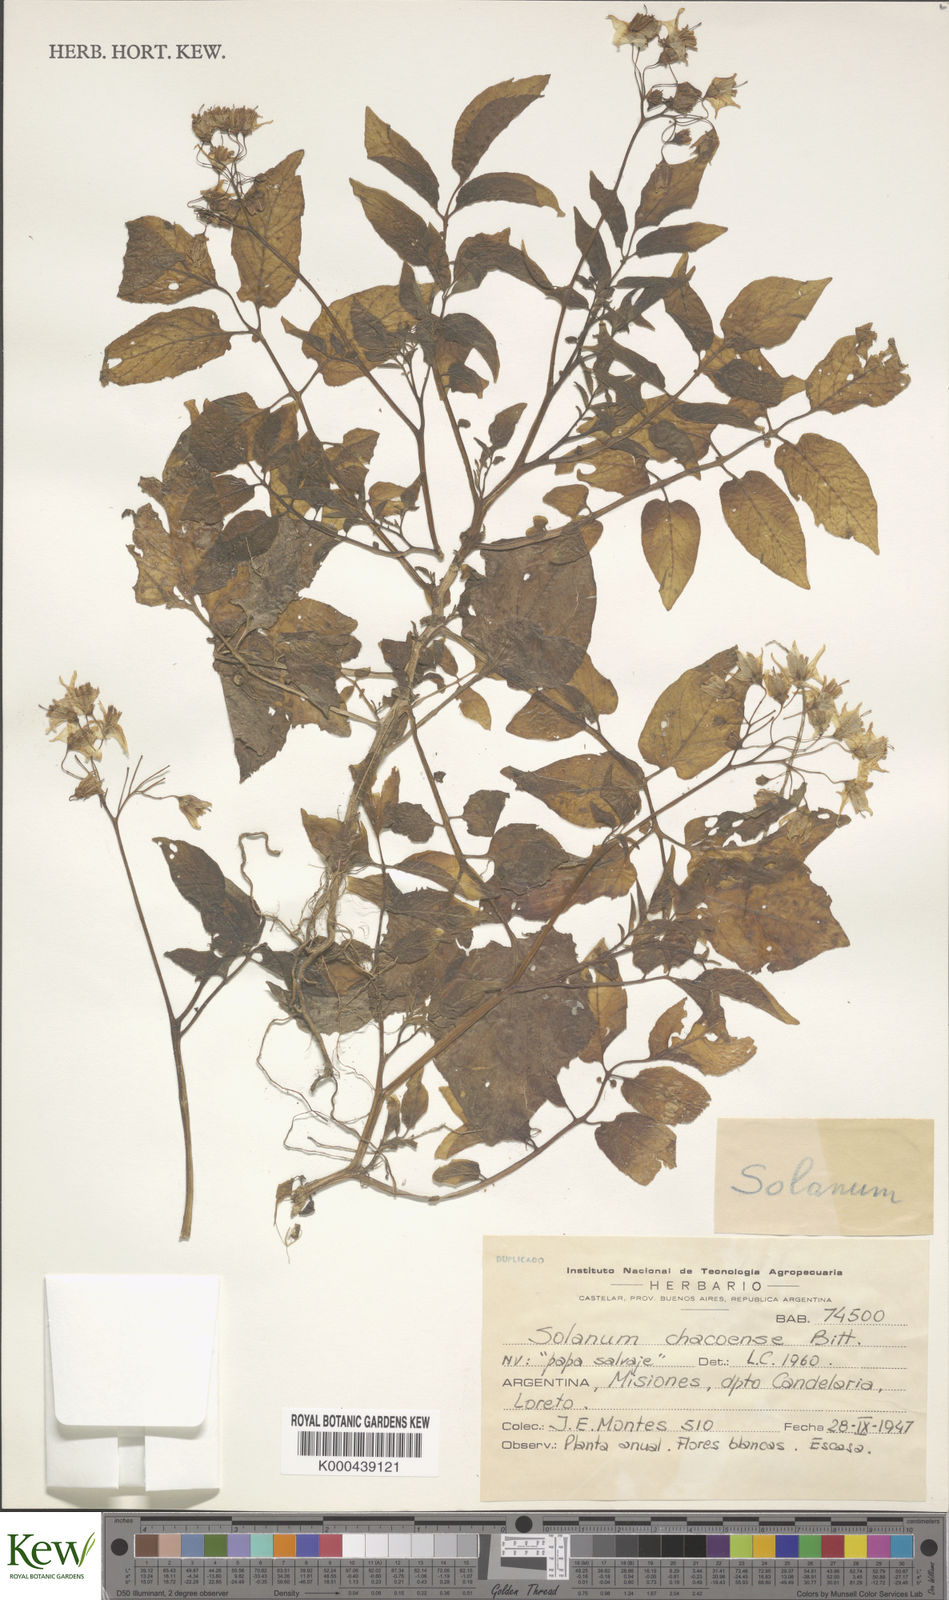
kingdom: Plantae
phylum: Tracheophyta
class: Magnoliopsida
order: Solanales
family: Solanaceae
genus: Solanum
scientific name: Solanum chacoense
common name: Chaco potato
